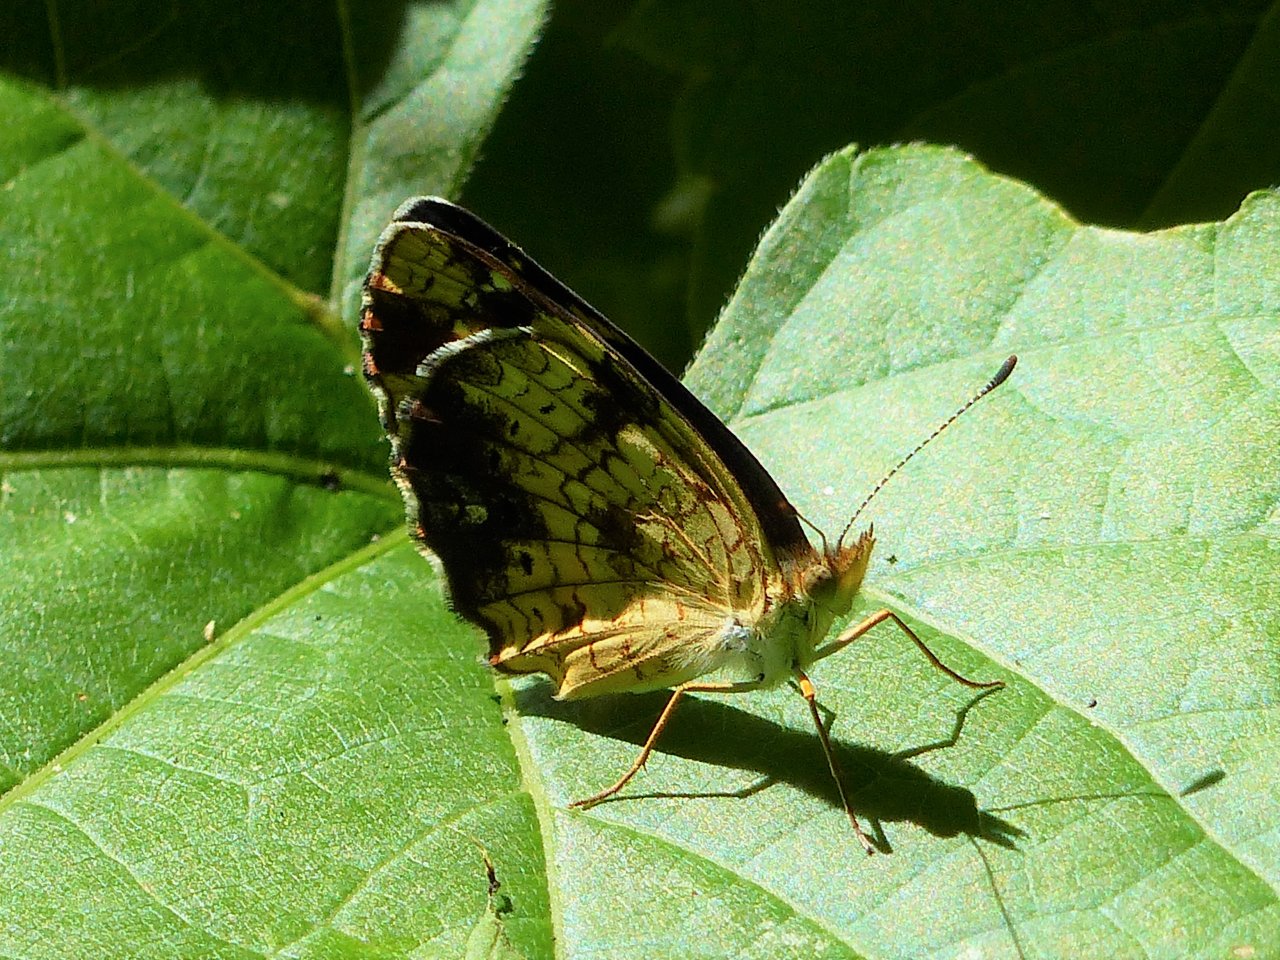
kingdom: Animalia
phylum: Arthropoda
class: Insecta
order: Lepidoptera
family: Nymphalidae
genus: Phyciodes
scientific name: Phyciodes tharos
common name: Pearl Crescent
